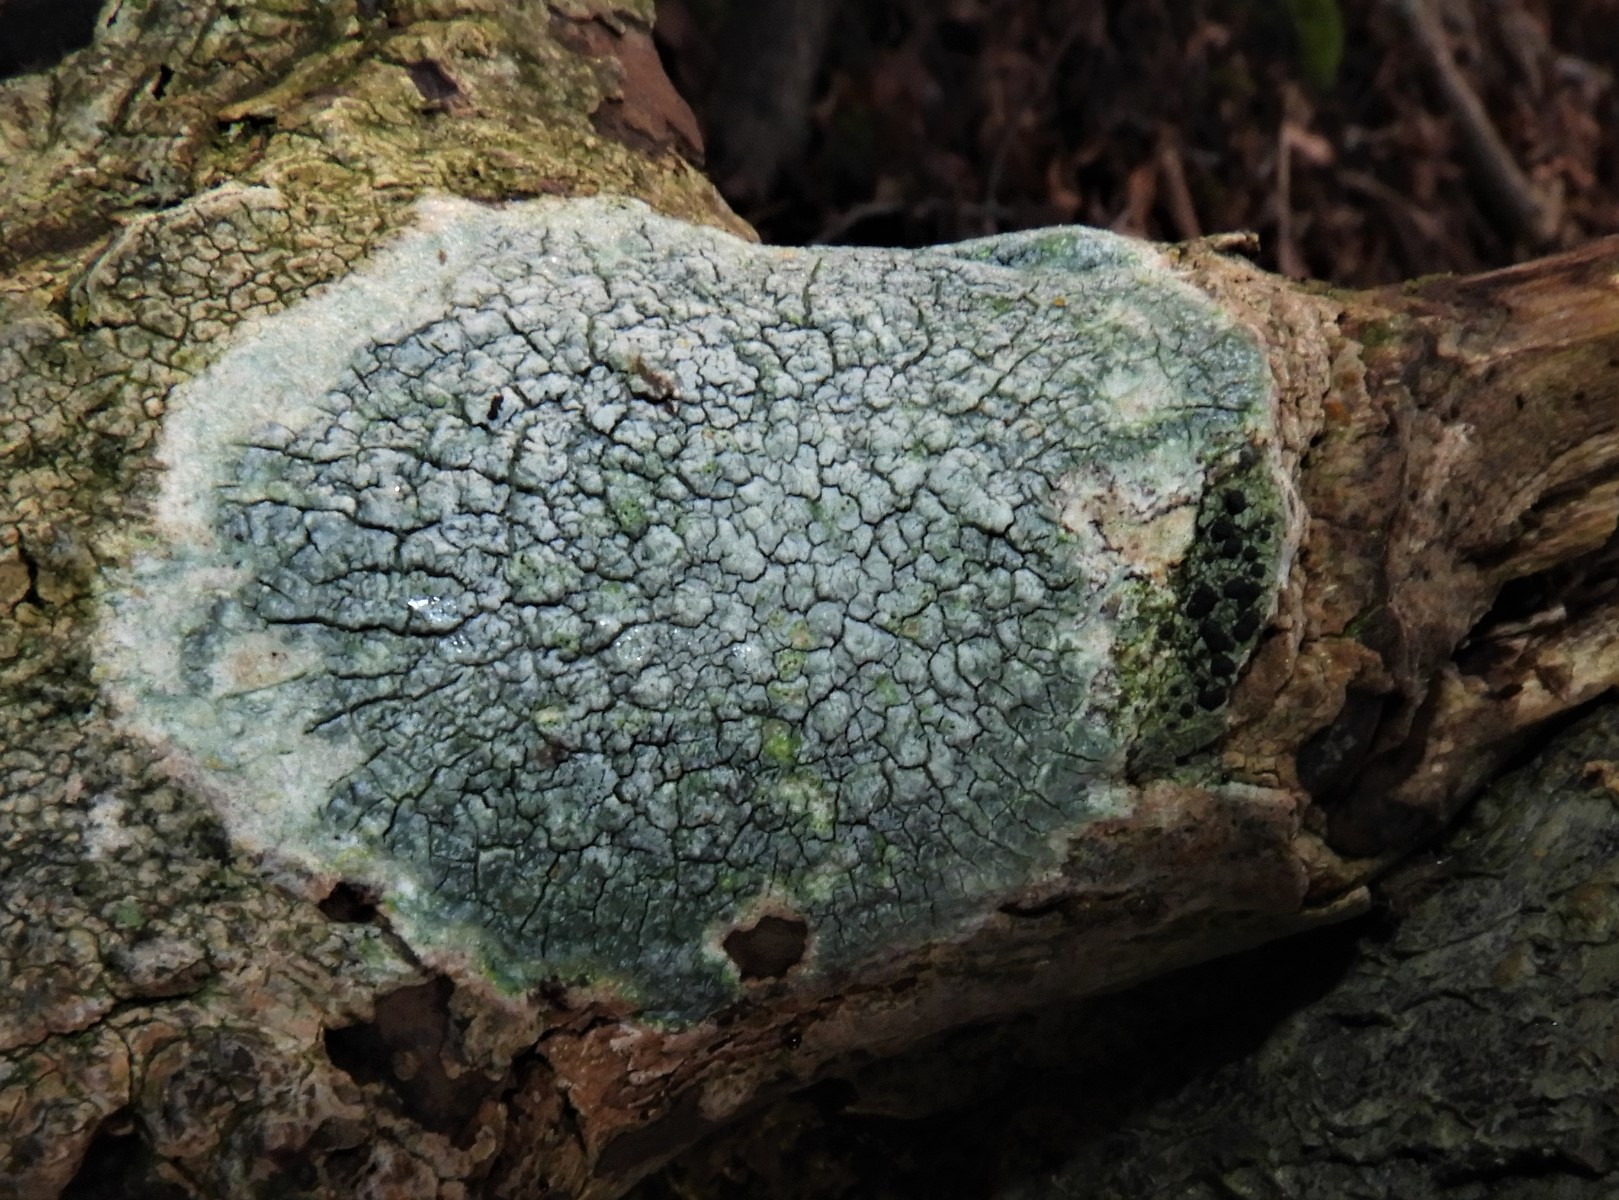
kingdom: Fungi
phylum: Ascomycota
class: Lecanoromycetes
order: Pertusariales
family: Pertusariaceae
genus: Pertusaria
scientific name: Pertusaria pertusa
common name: almindelig prikvortelav
